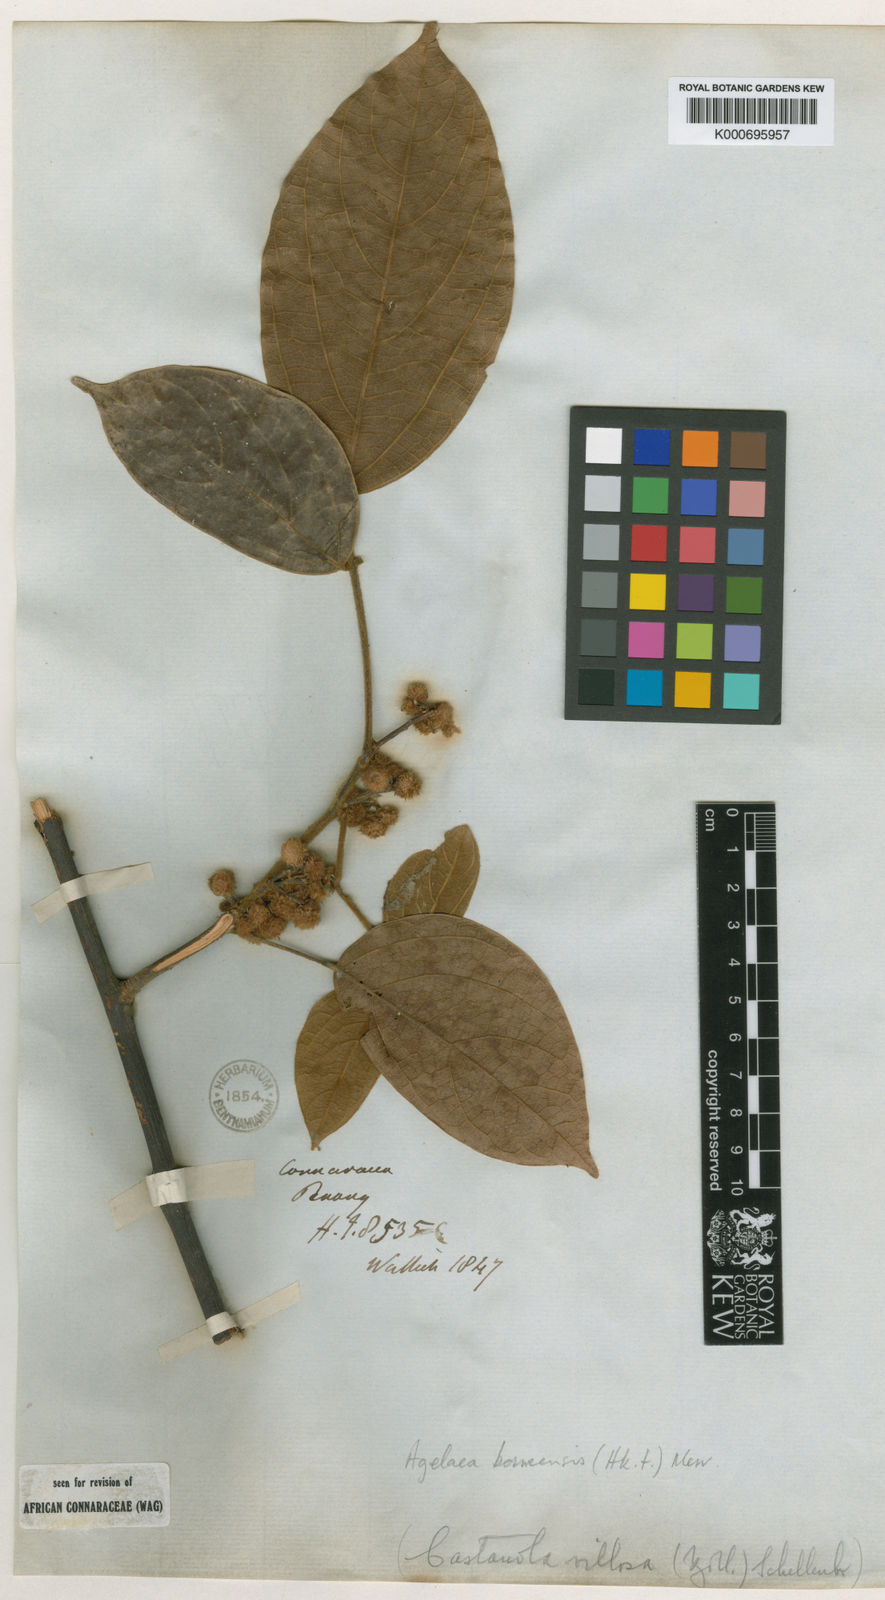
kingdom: Plantae
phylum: Tracheophyta
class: Magnoliopsida
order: Oxalidales
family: Connaraceae
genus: Agelaea
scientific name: Agelaea borneensis
